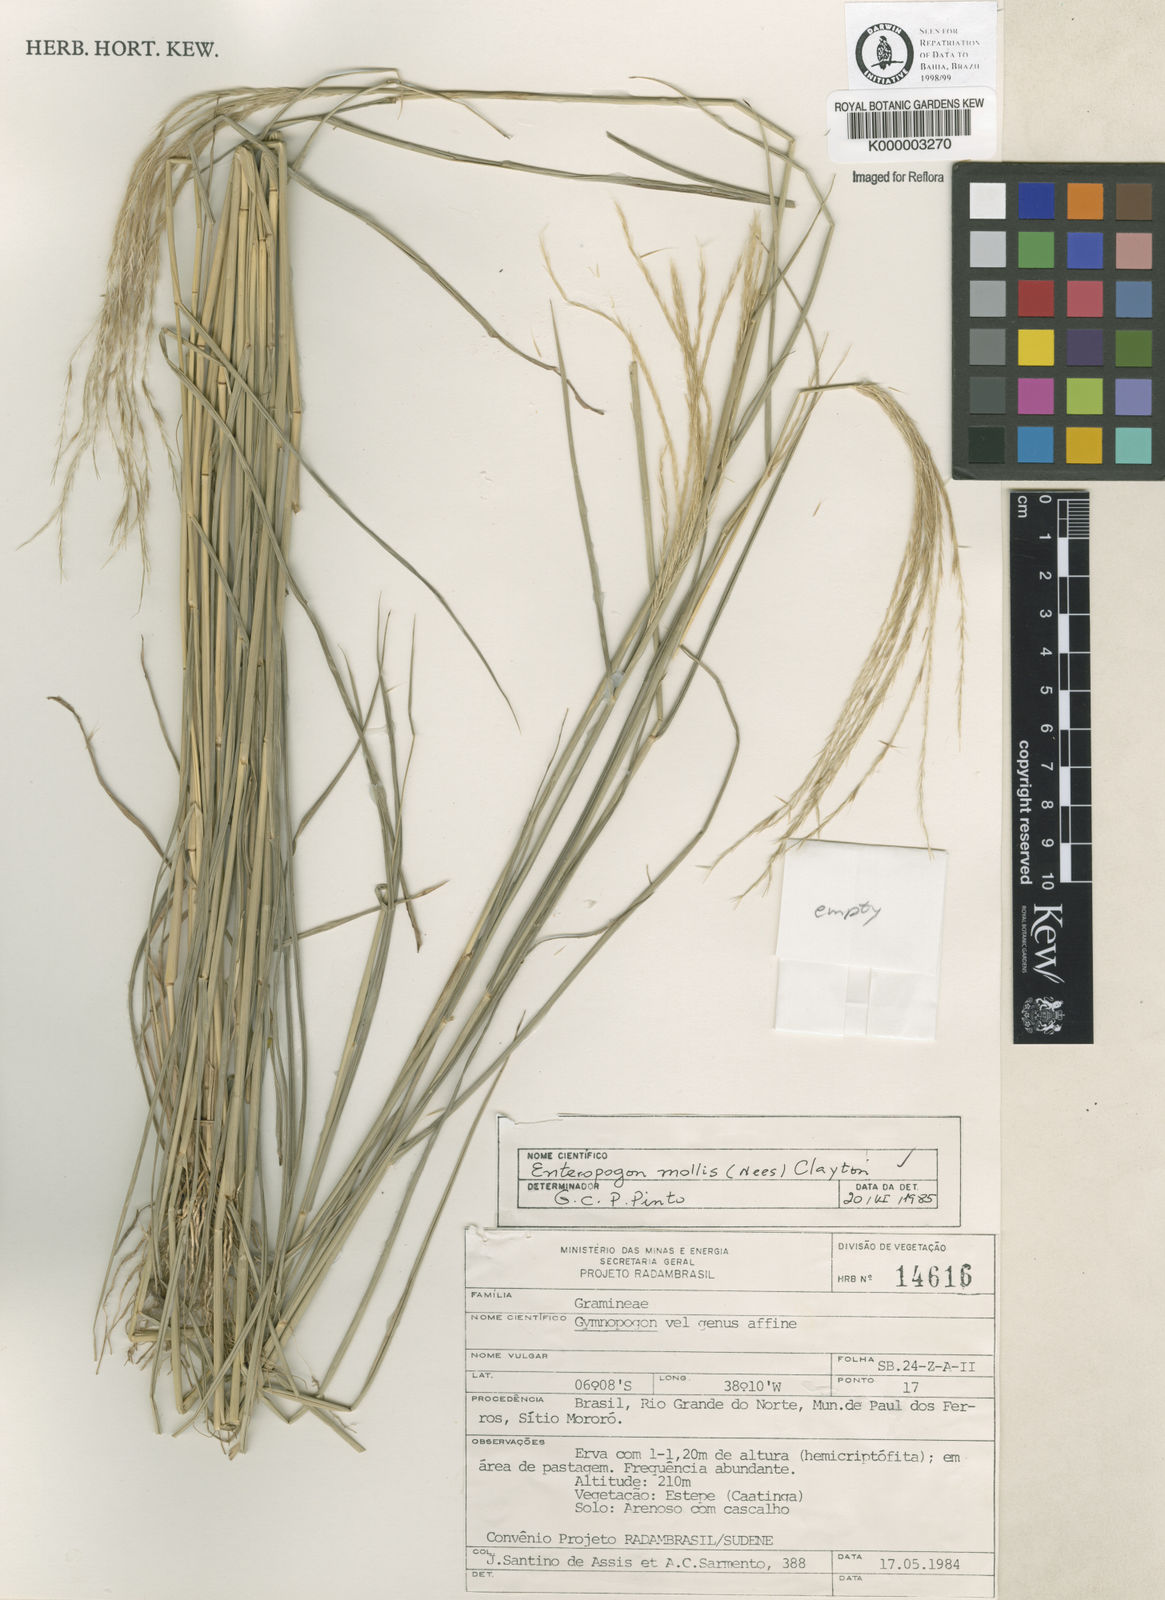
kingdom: Plantae
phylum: Tracheophyta
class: Liliopsida
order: Poales
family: Poaceae
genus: Leptochloa
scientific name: Leptochloa anisopoda
